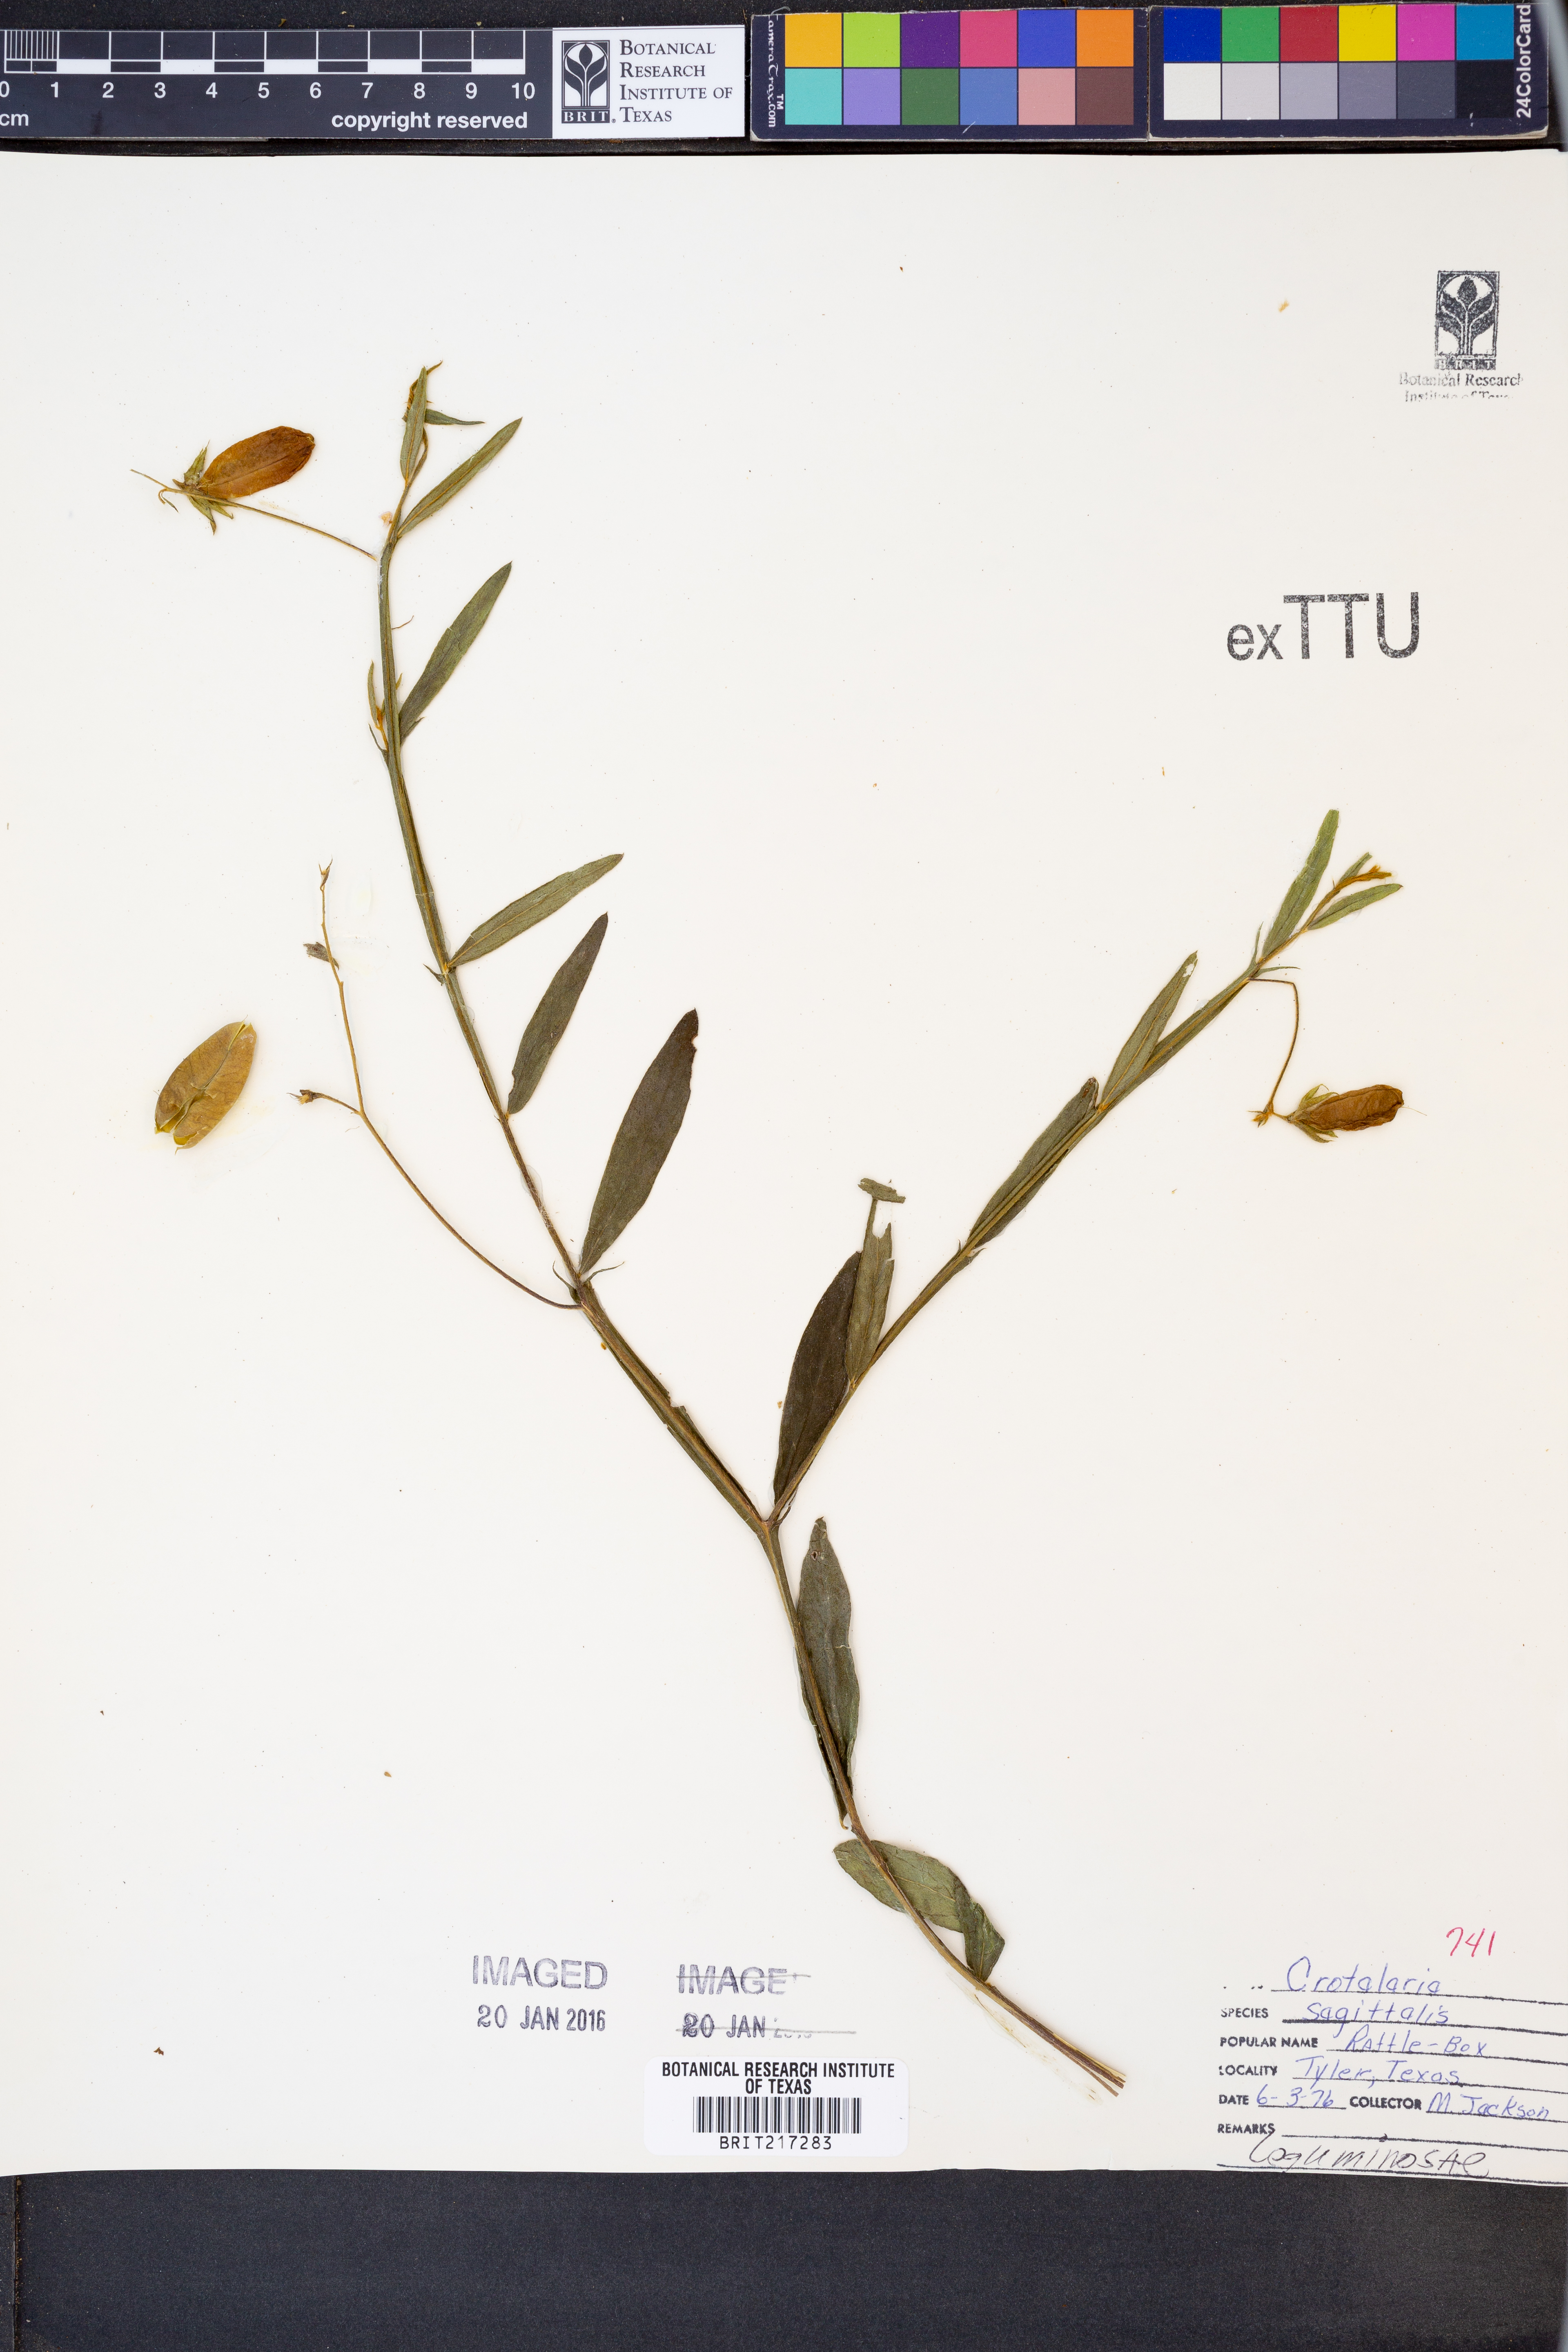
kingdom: Plantae
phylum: Tracheophyta
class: Magnoliopsida
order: Fabales
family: Fabaceae
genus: Crotalaria
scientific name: Crotalaria sagittalis
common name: Arrowhead rattlebox
